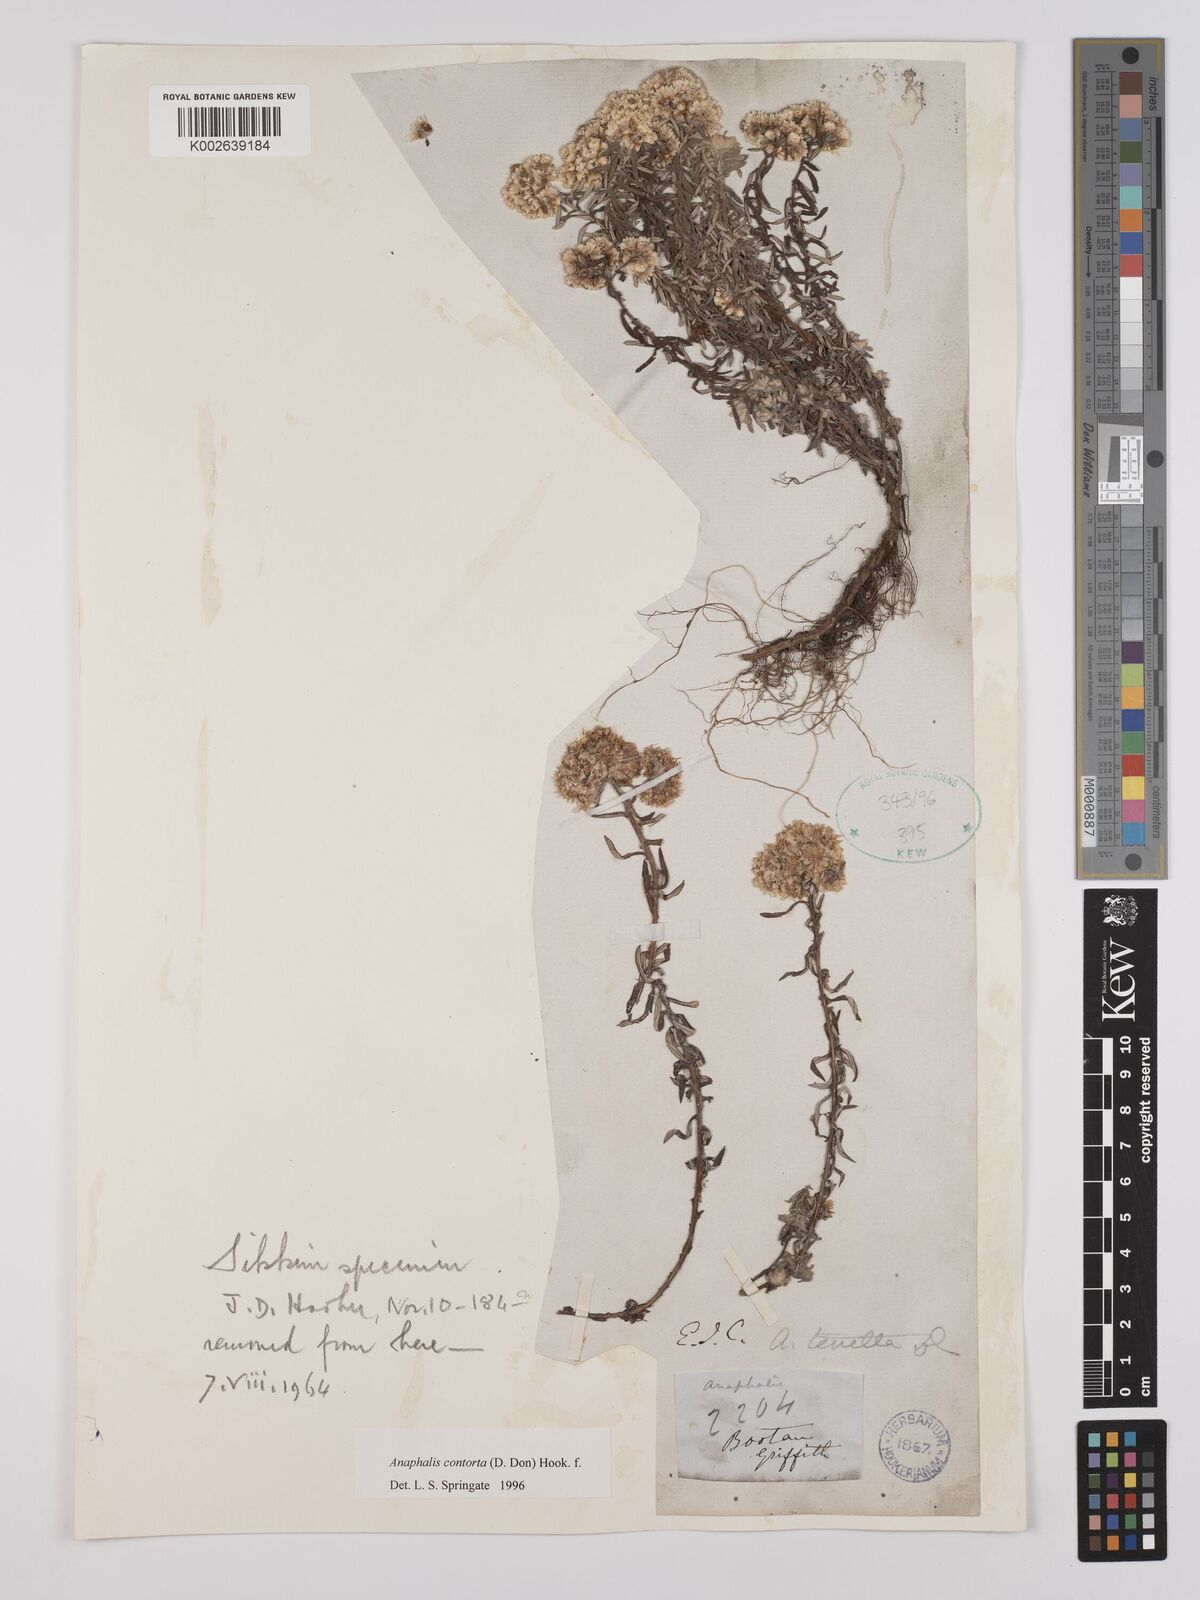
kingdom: Plantae
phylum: Tracheophyta
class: Magnoliopsida
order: Asterales
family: Asteraceae
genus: Anaphalis
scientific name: Anaphalis contorta
